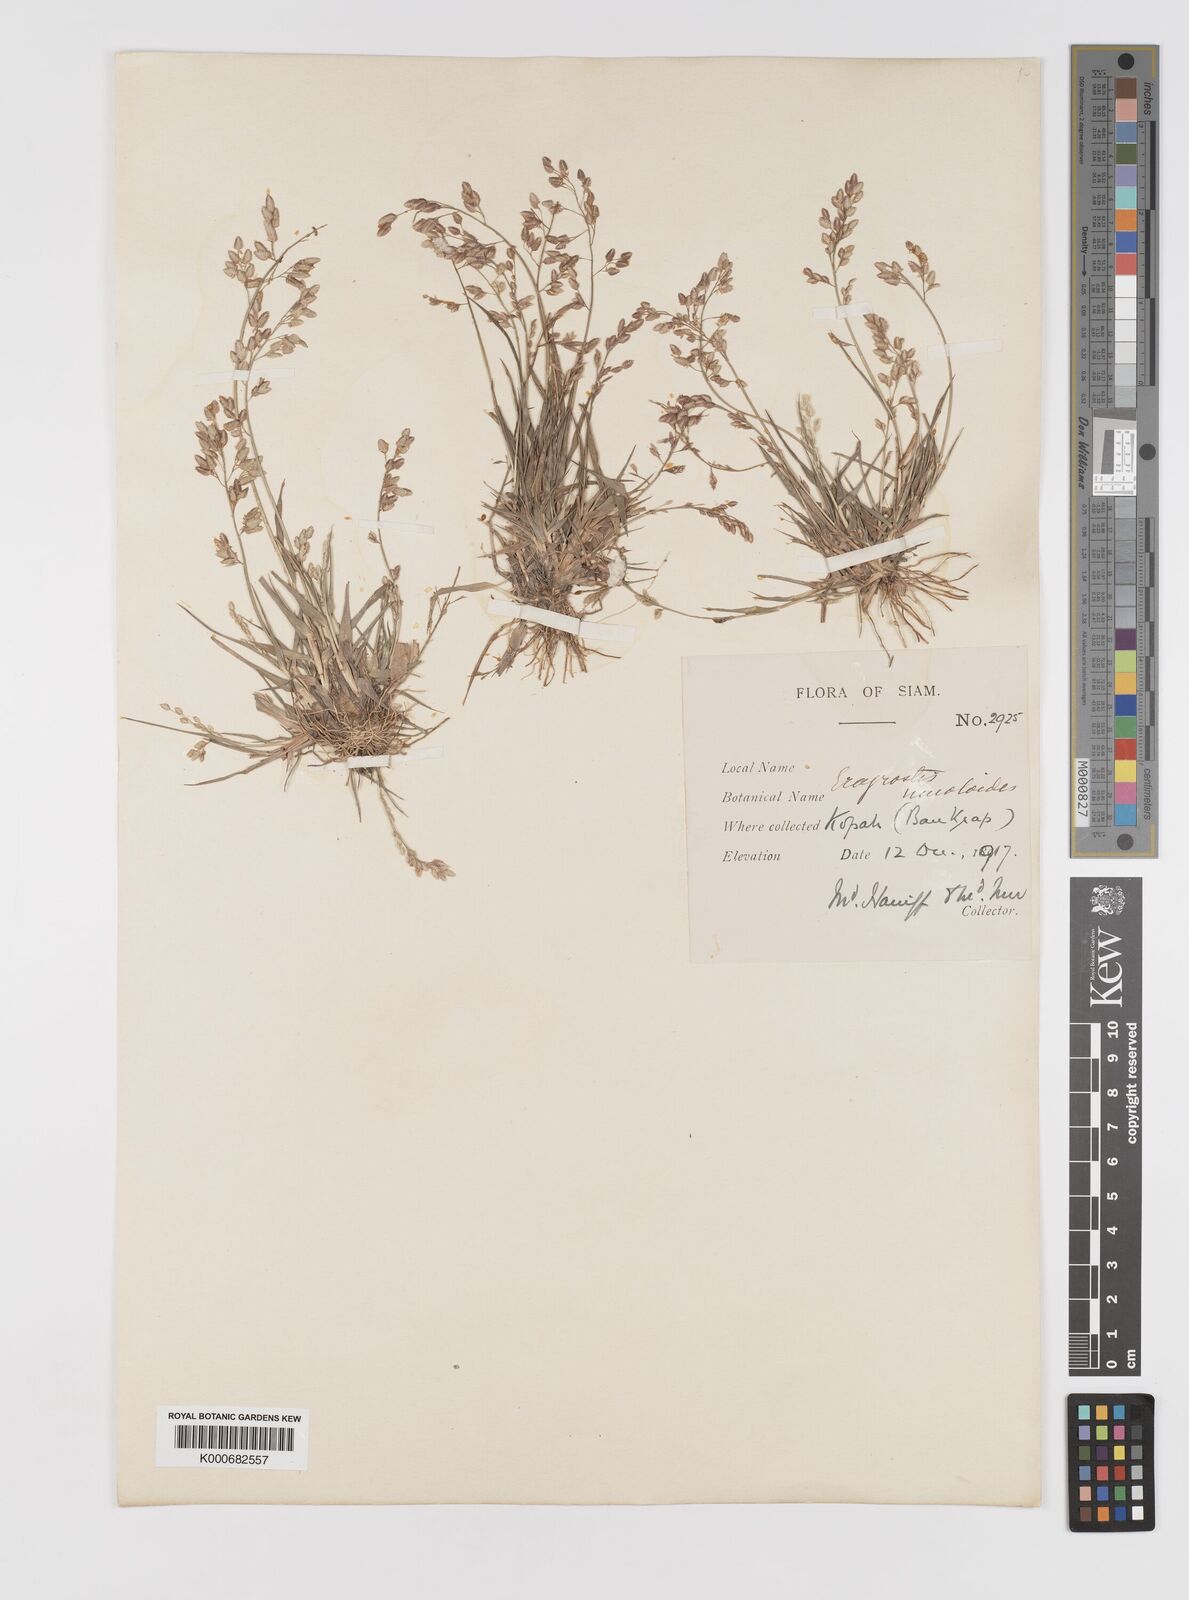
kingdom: Plantae
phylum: Tracheophyta
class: Liliopsida
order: Poales
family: Poaceae
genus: Eragrostis
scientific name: Eragrostis unioloides
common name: Chinese lovegrass
